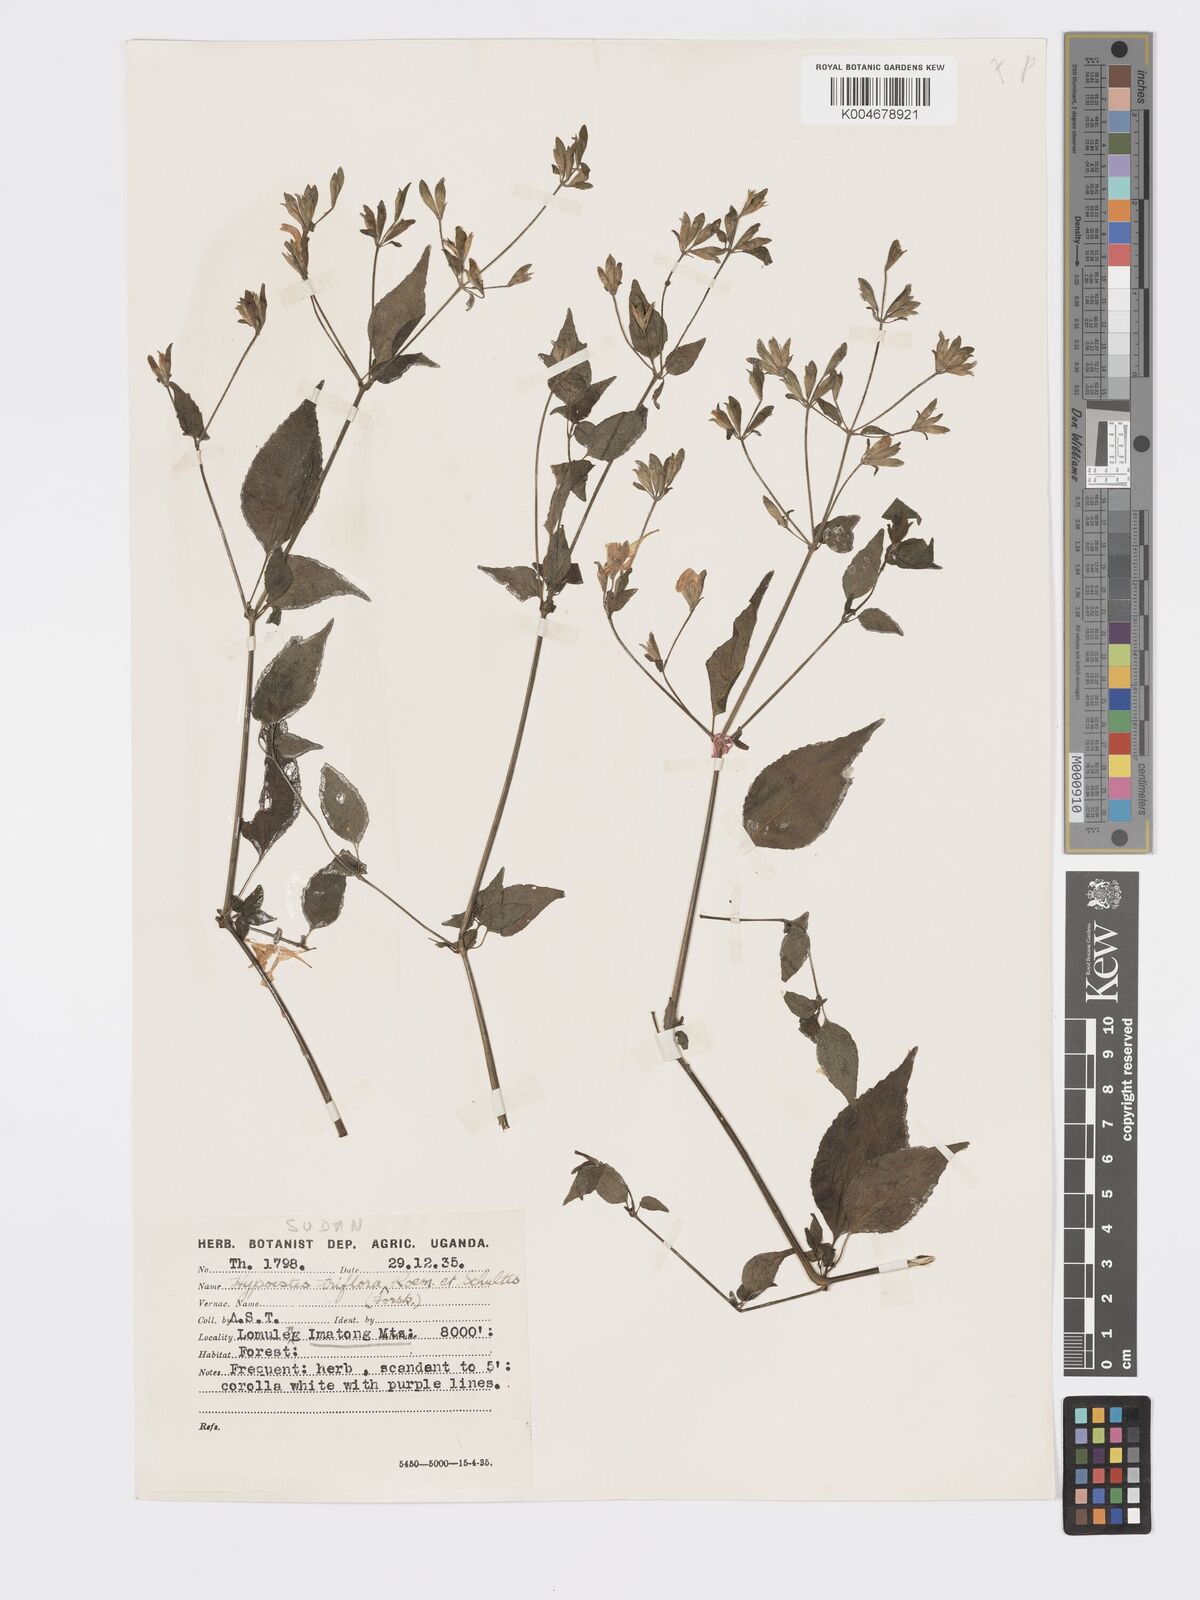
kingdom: Plantae
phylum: Tracheophyta
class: Magnoliopsida
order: Lamiales
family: Acanthaceae
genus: Hypoestes
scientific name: Hypoestes triflora
